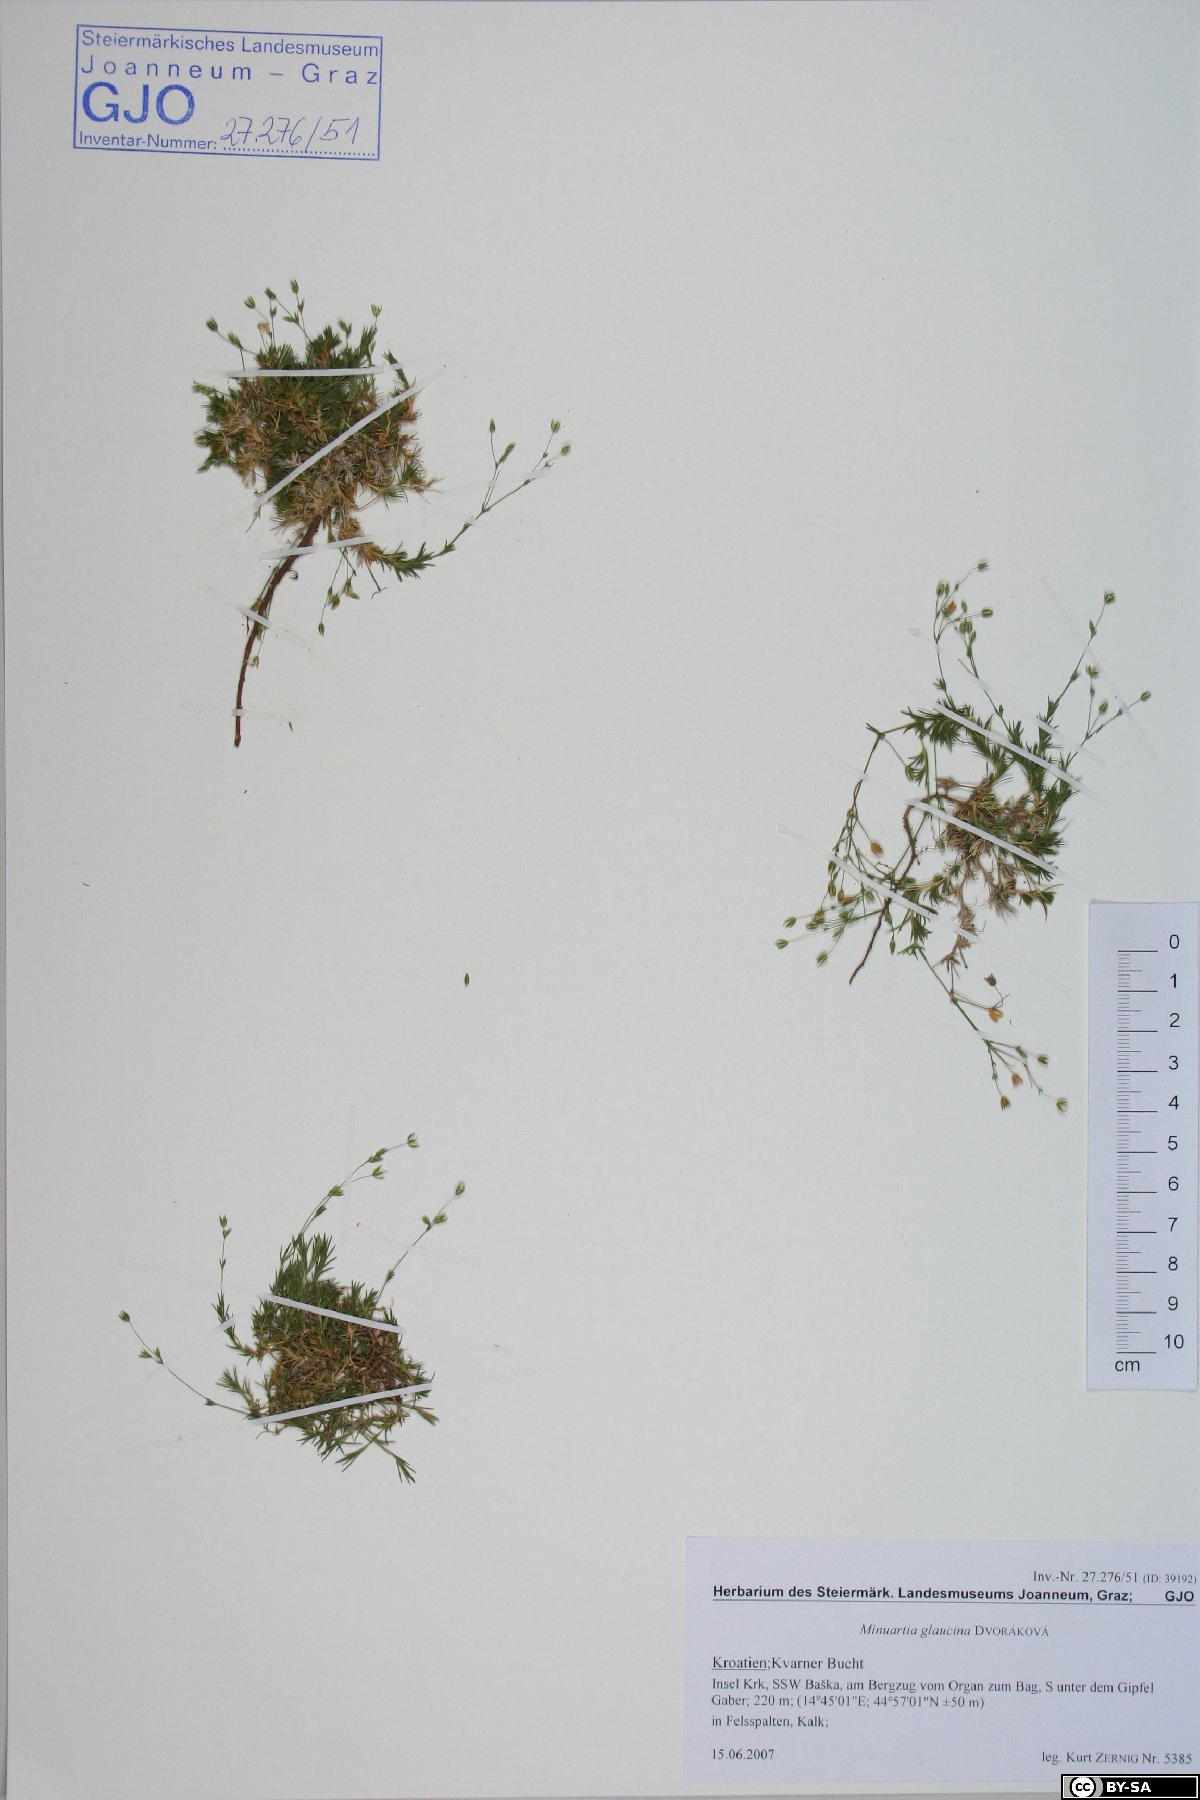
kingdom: Plantae
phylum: Tracheophyta
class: Magnoliopsida
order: Caryophyllales
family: Caryophyllaceae
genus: Sabulina
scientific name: Sabulina glaucina
